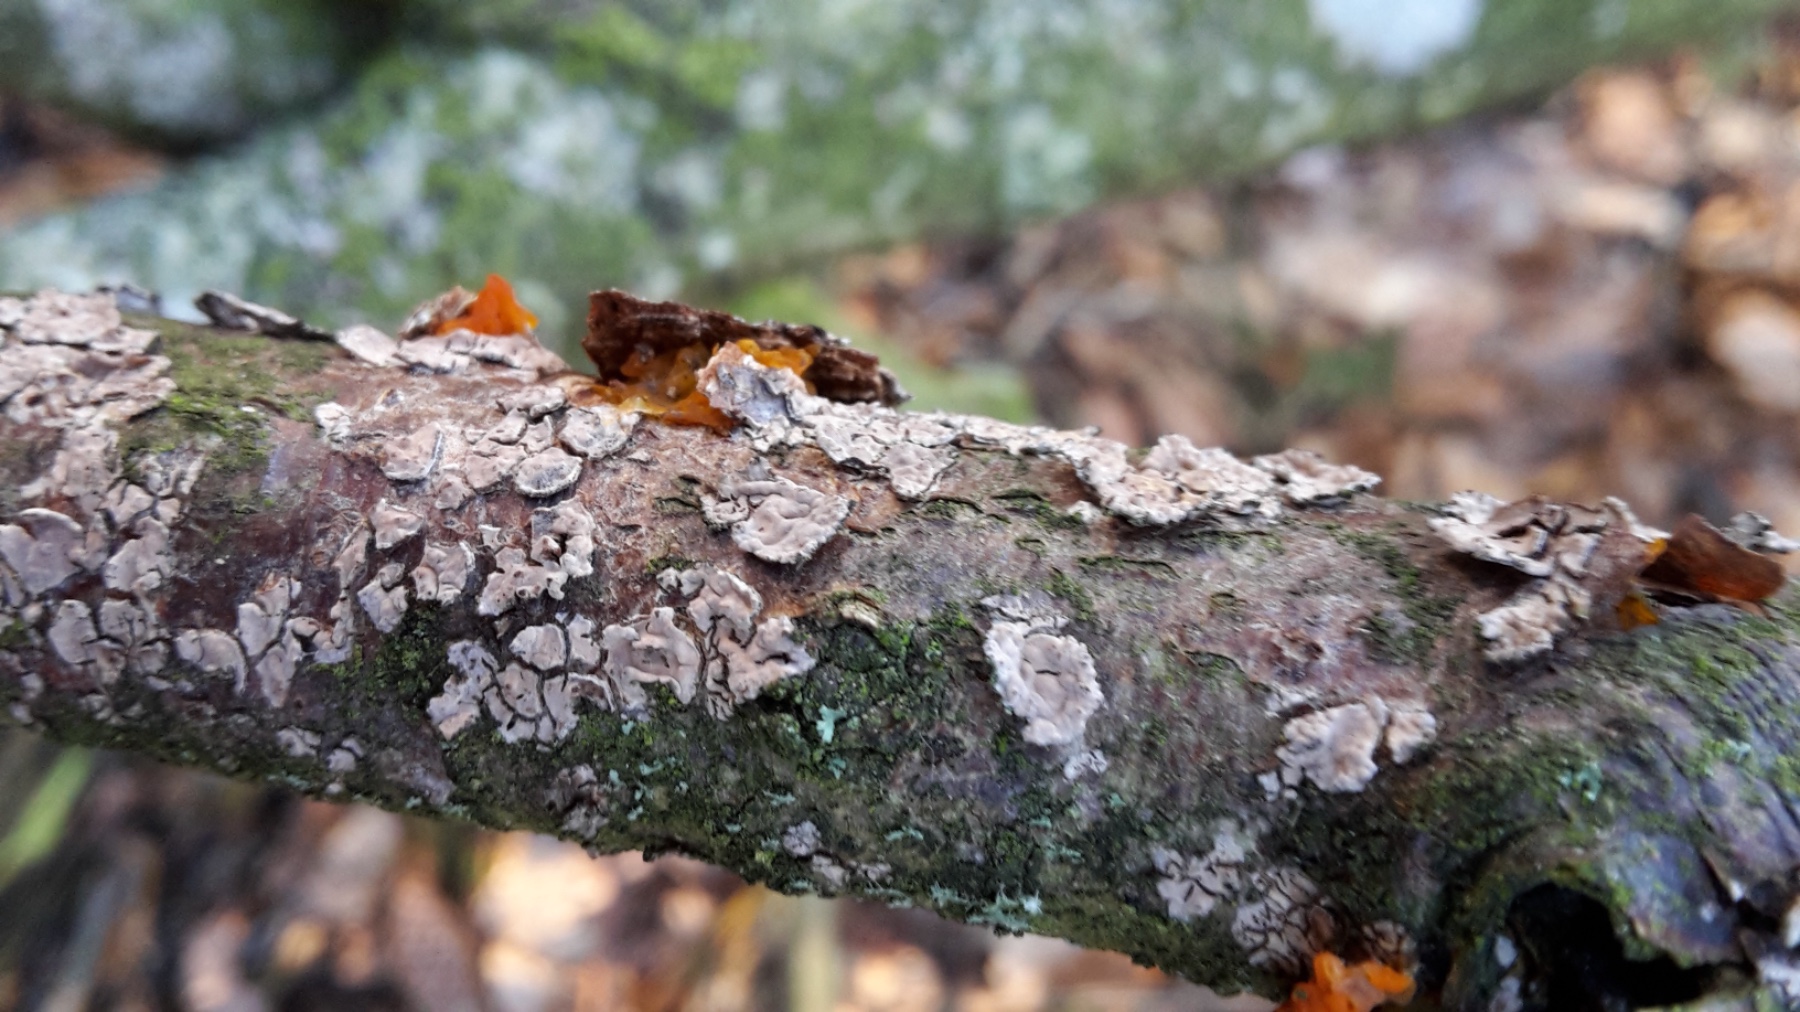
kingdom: Fungi
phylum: Basidiomycota
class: Agaricomycetes
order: Russulales
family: Peniophoraceae
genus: Peniophora
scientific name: Peniophora
